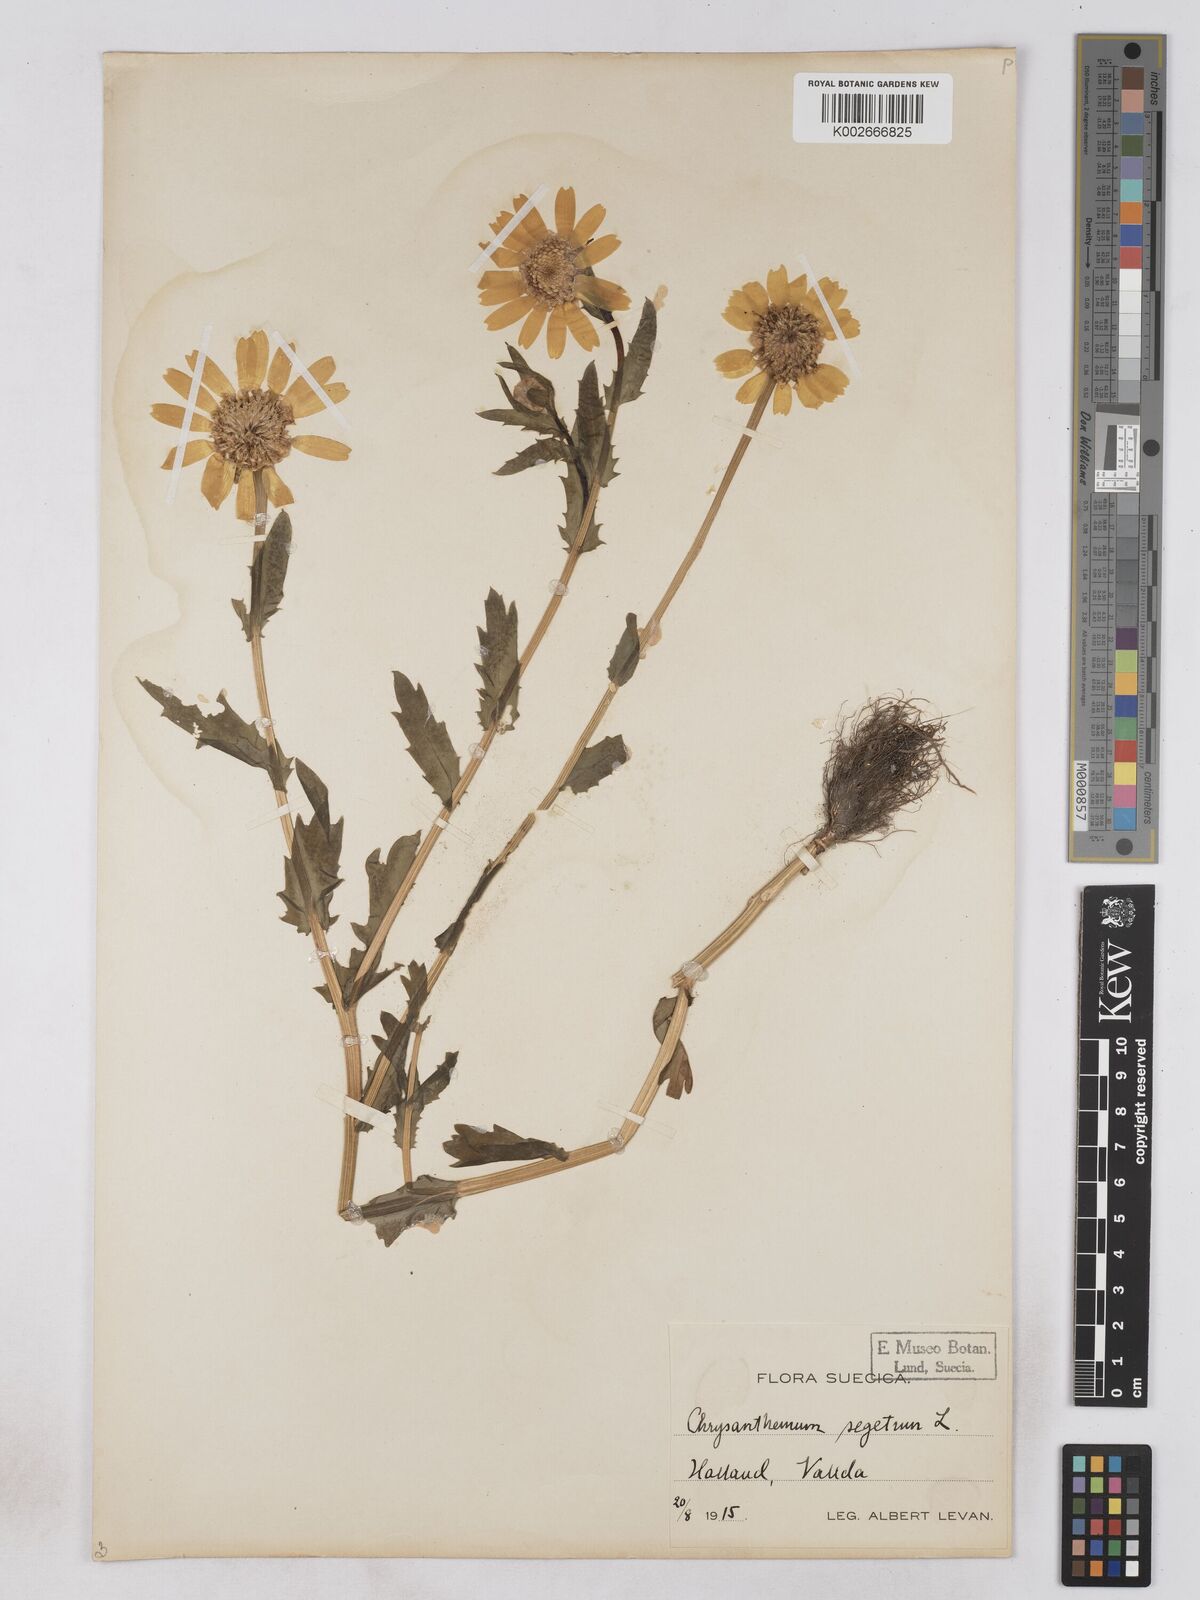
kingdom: Plantae
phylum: Tracheophyta
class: Magnoliopsida
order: Asterales
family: Asteraceae
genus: Glebionis
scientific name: Glebionis segetum
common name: Corndaisy
